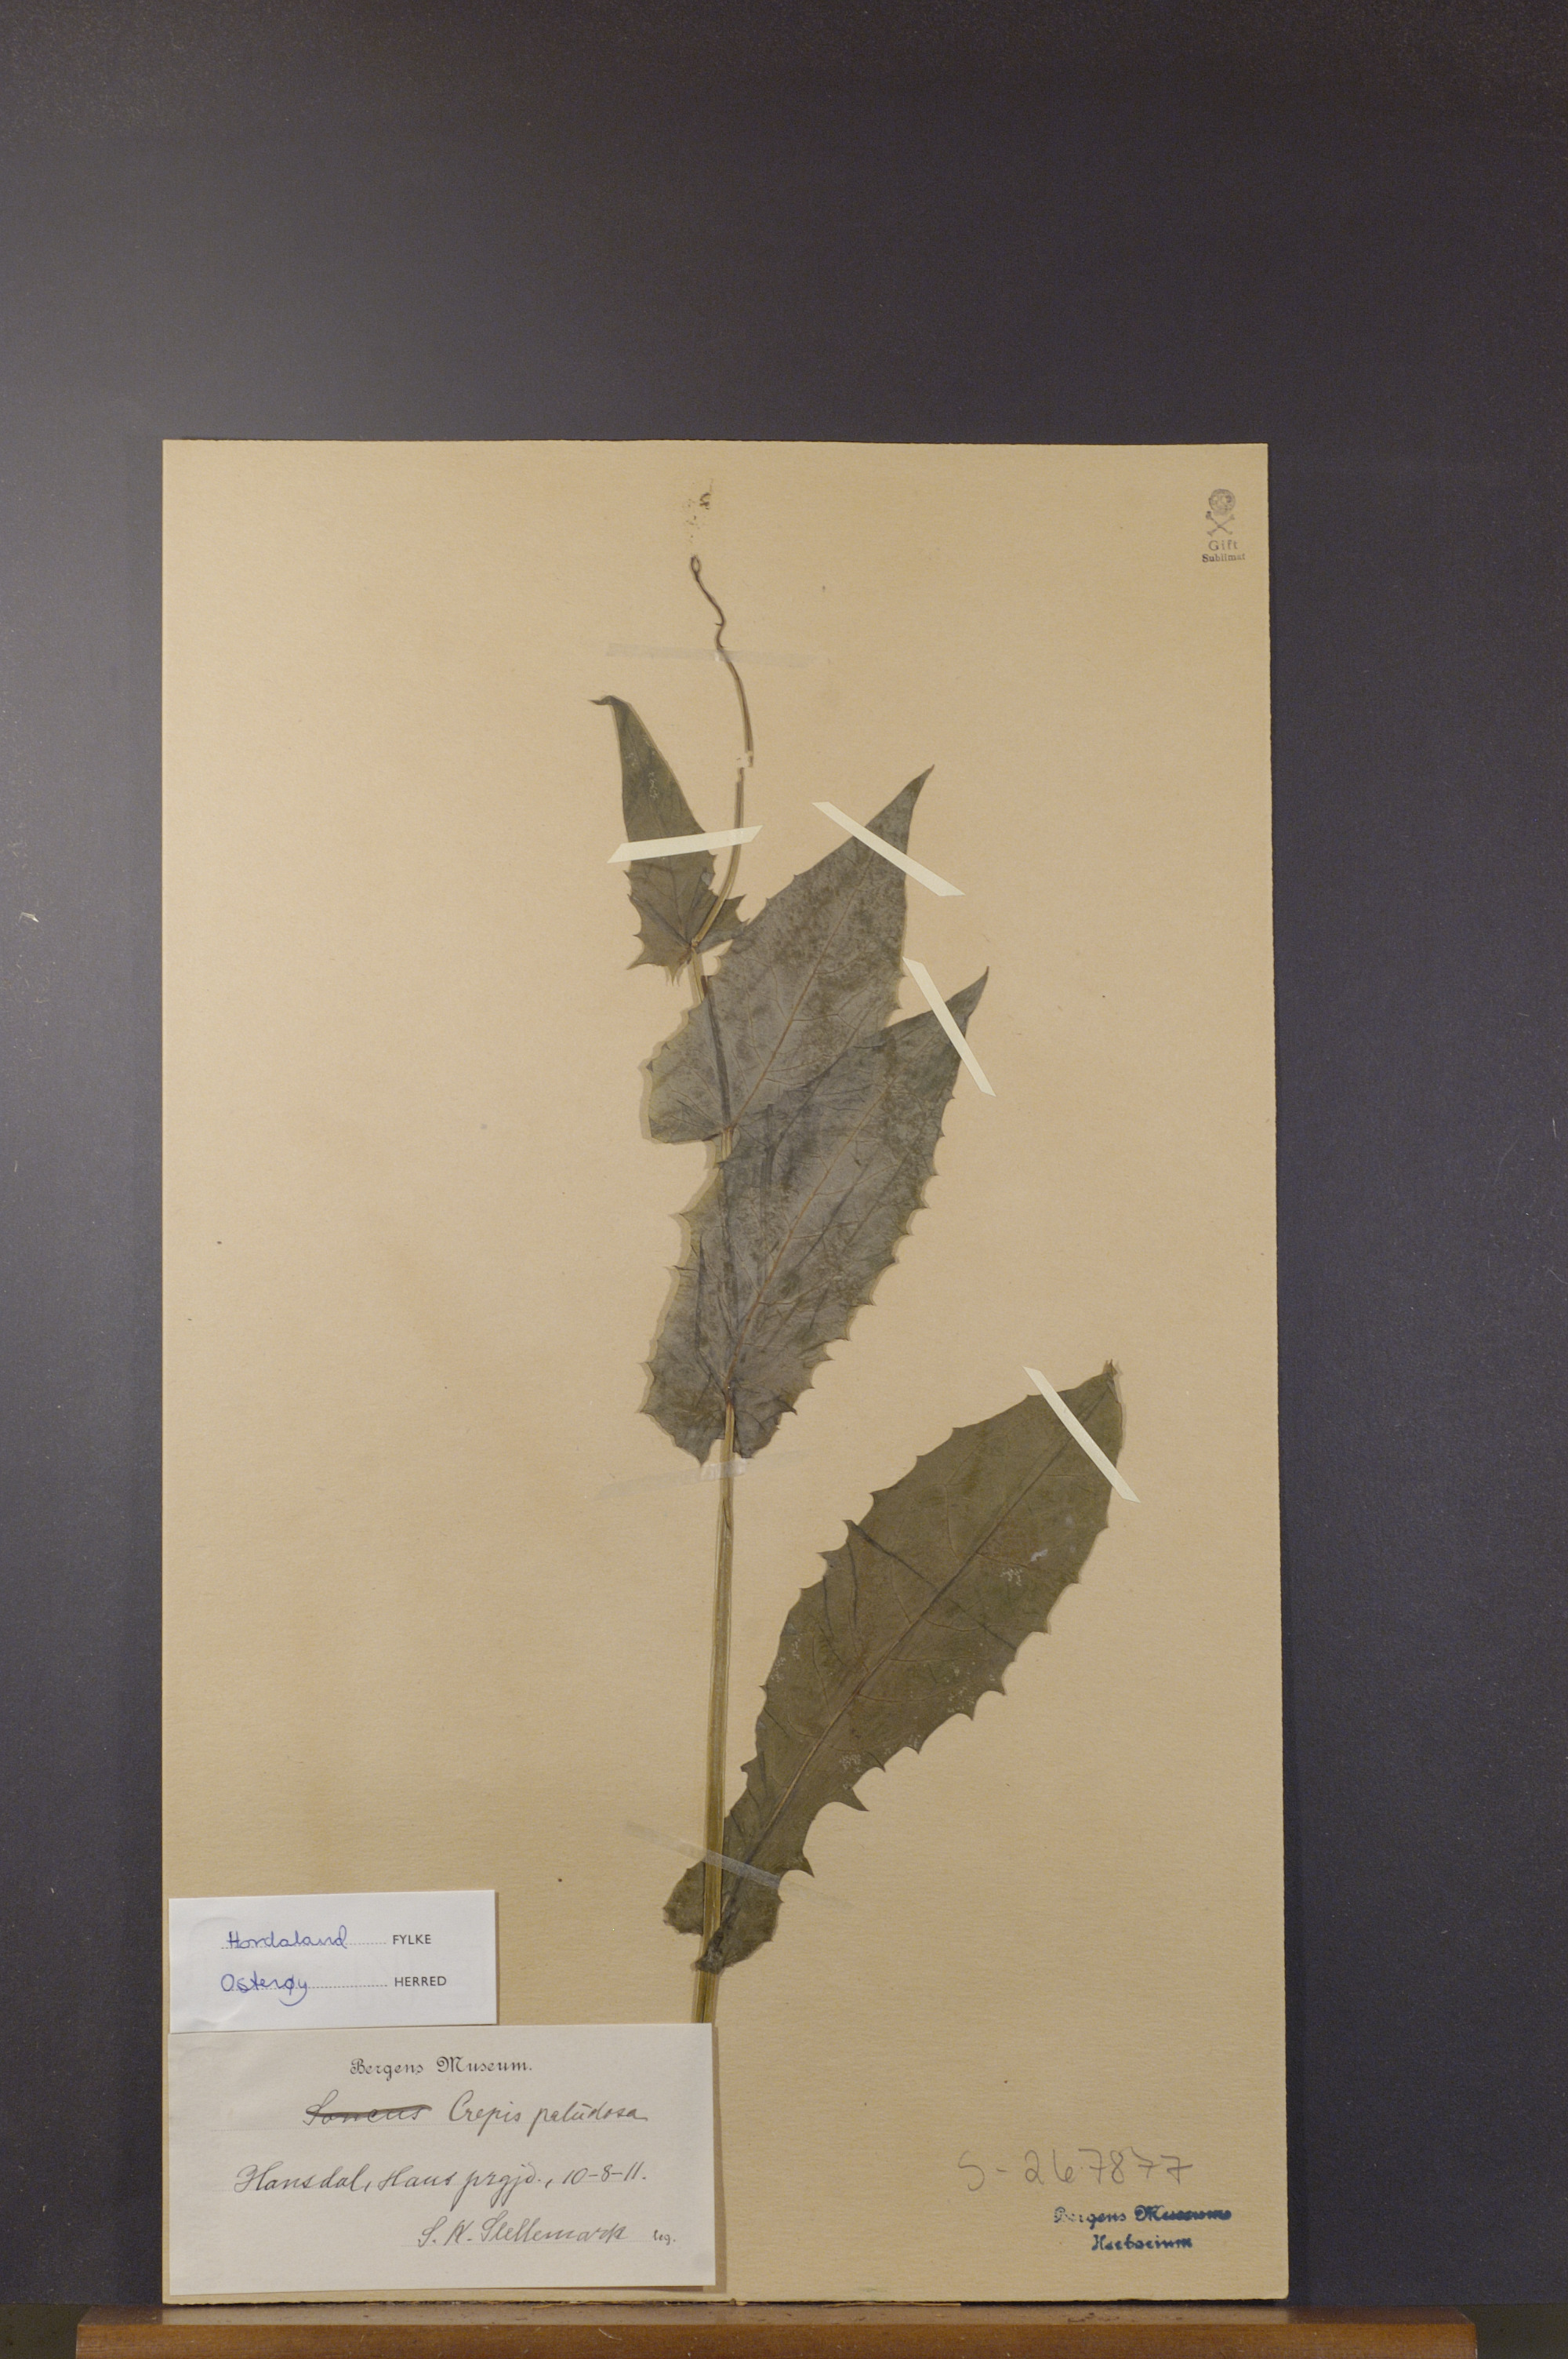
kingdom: Plantae
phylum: Tracheophyta
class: Magnoliopsida
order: Asterales
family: Asteraceae
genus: Crepis
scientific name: Crepis paludosa
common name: Marsh hawk's-beard
